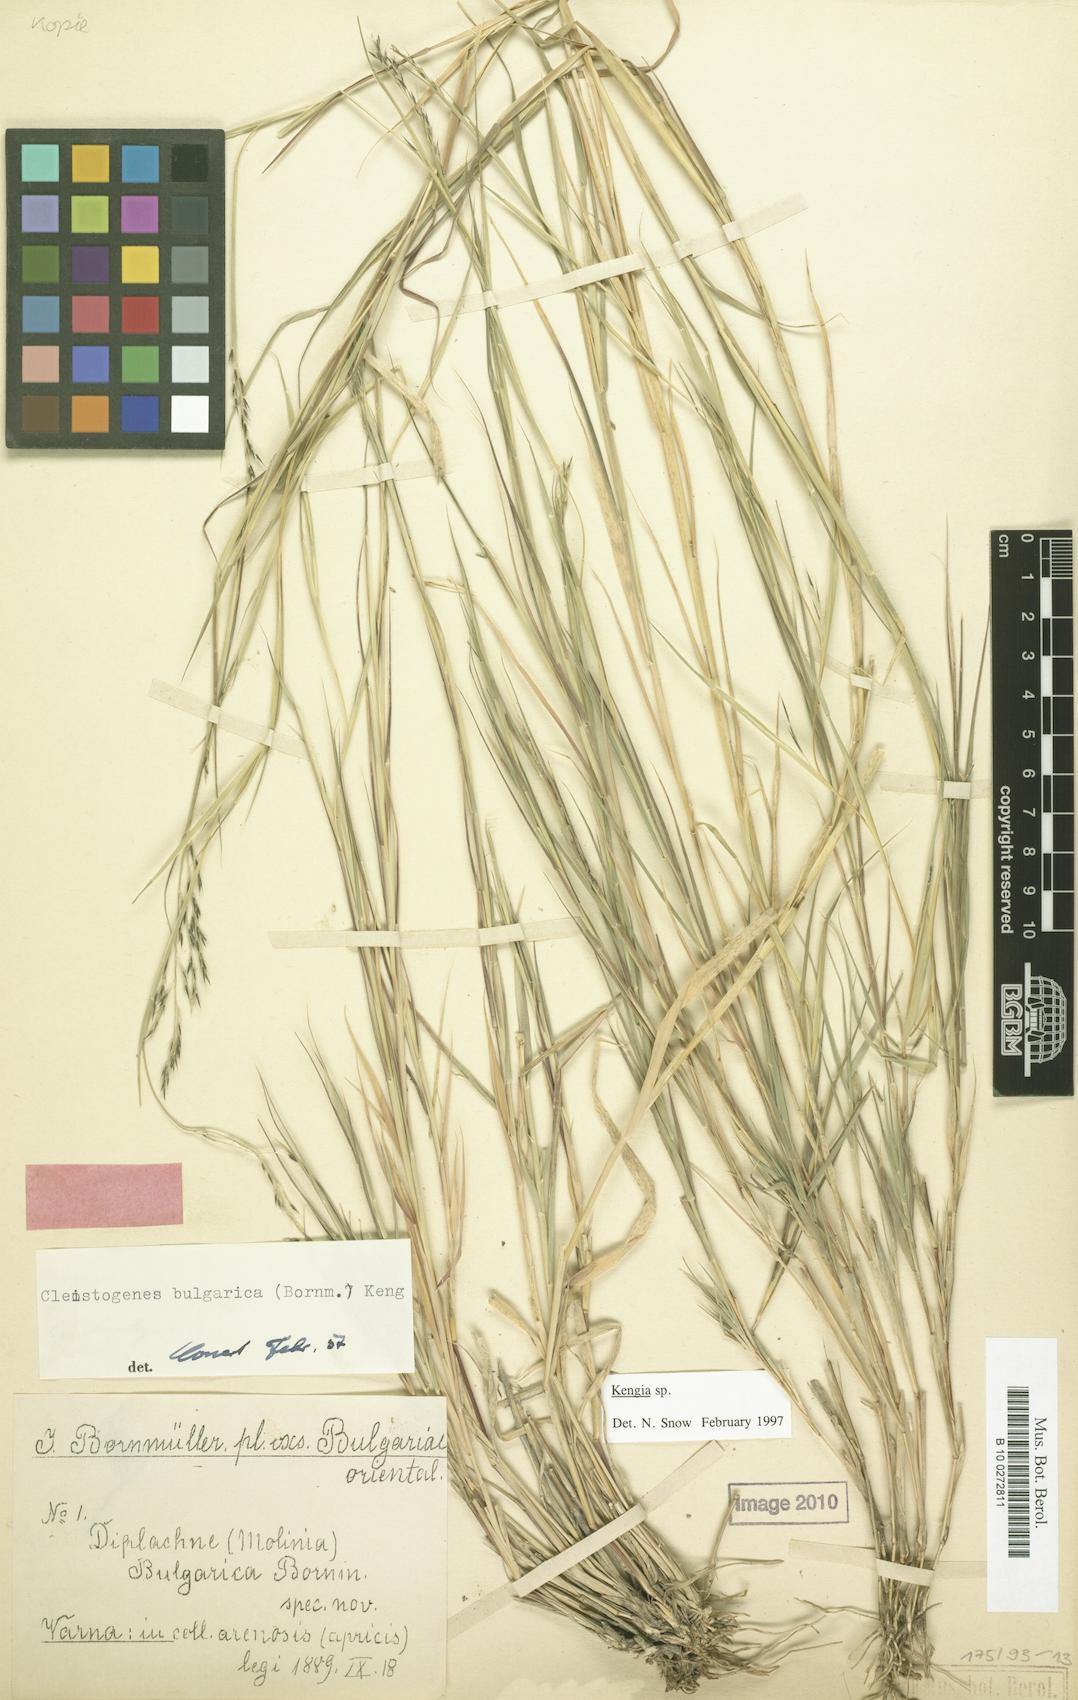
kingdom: Plantae
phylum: Tracheophyta
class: Liliopsida
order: Poales
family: Poaceae
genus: Cleistogenes
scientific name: Cleistogenes serotina
